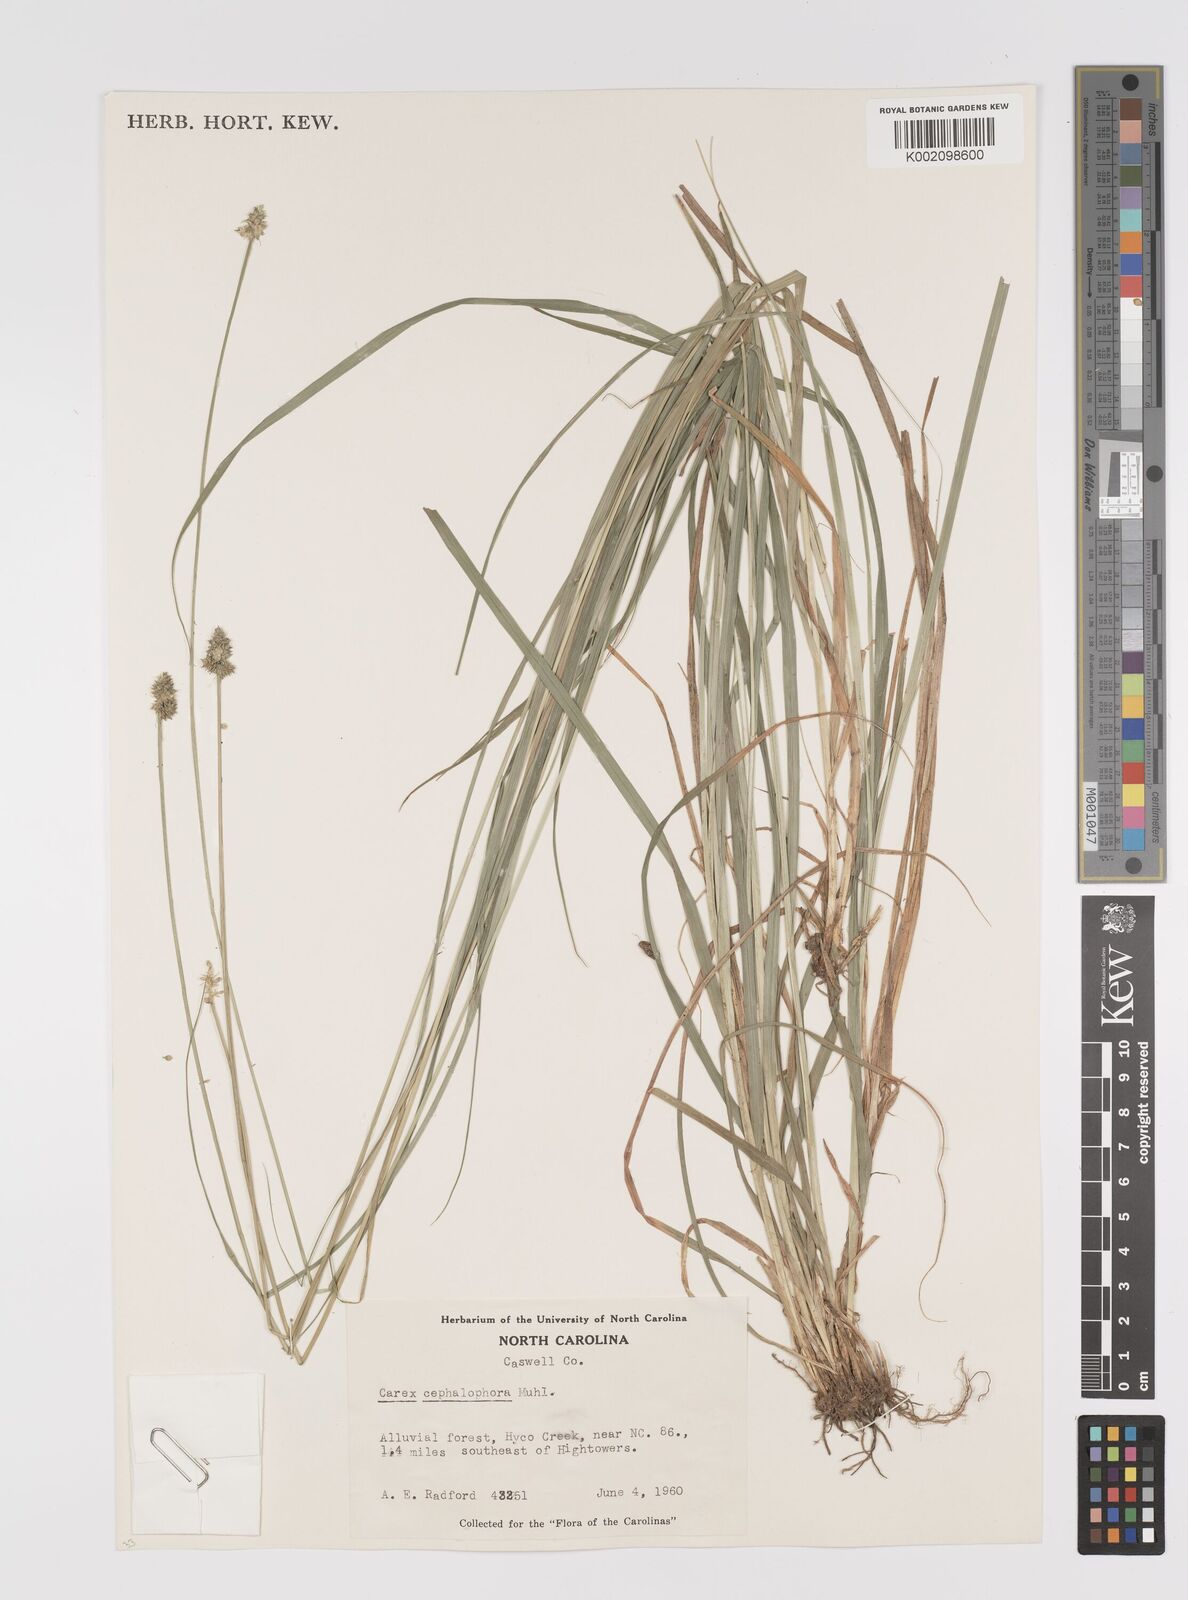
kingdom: Plantae
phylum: Tracheophyta
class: Liliopsida
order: Poales
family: Cyperaceae
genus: Carex
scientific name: Carex cephalophora
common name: Oval-headed sedge
